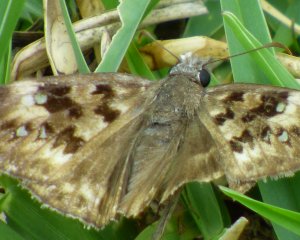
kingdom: Animalia
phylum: Arthropoda
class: Insecta
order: Lepidoptera
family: Hesperiidae
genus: Gesta
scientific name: Gesta
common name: Horace's Duskywing
